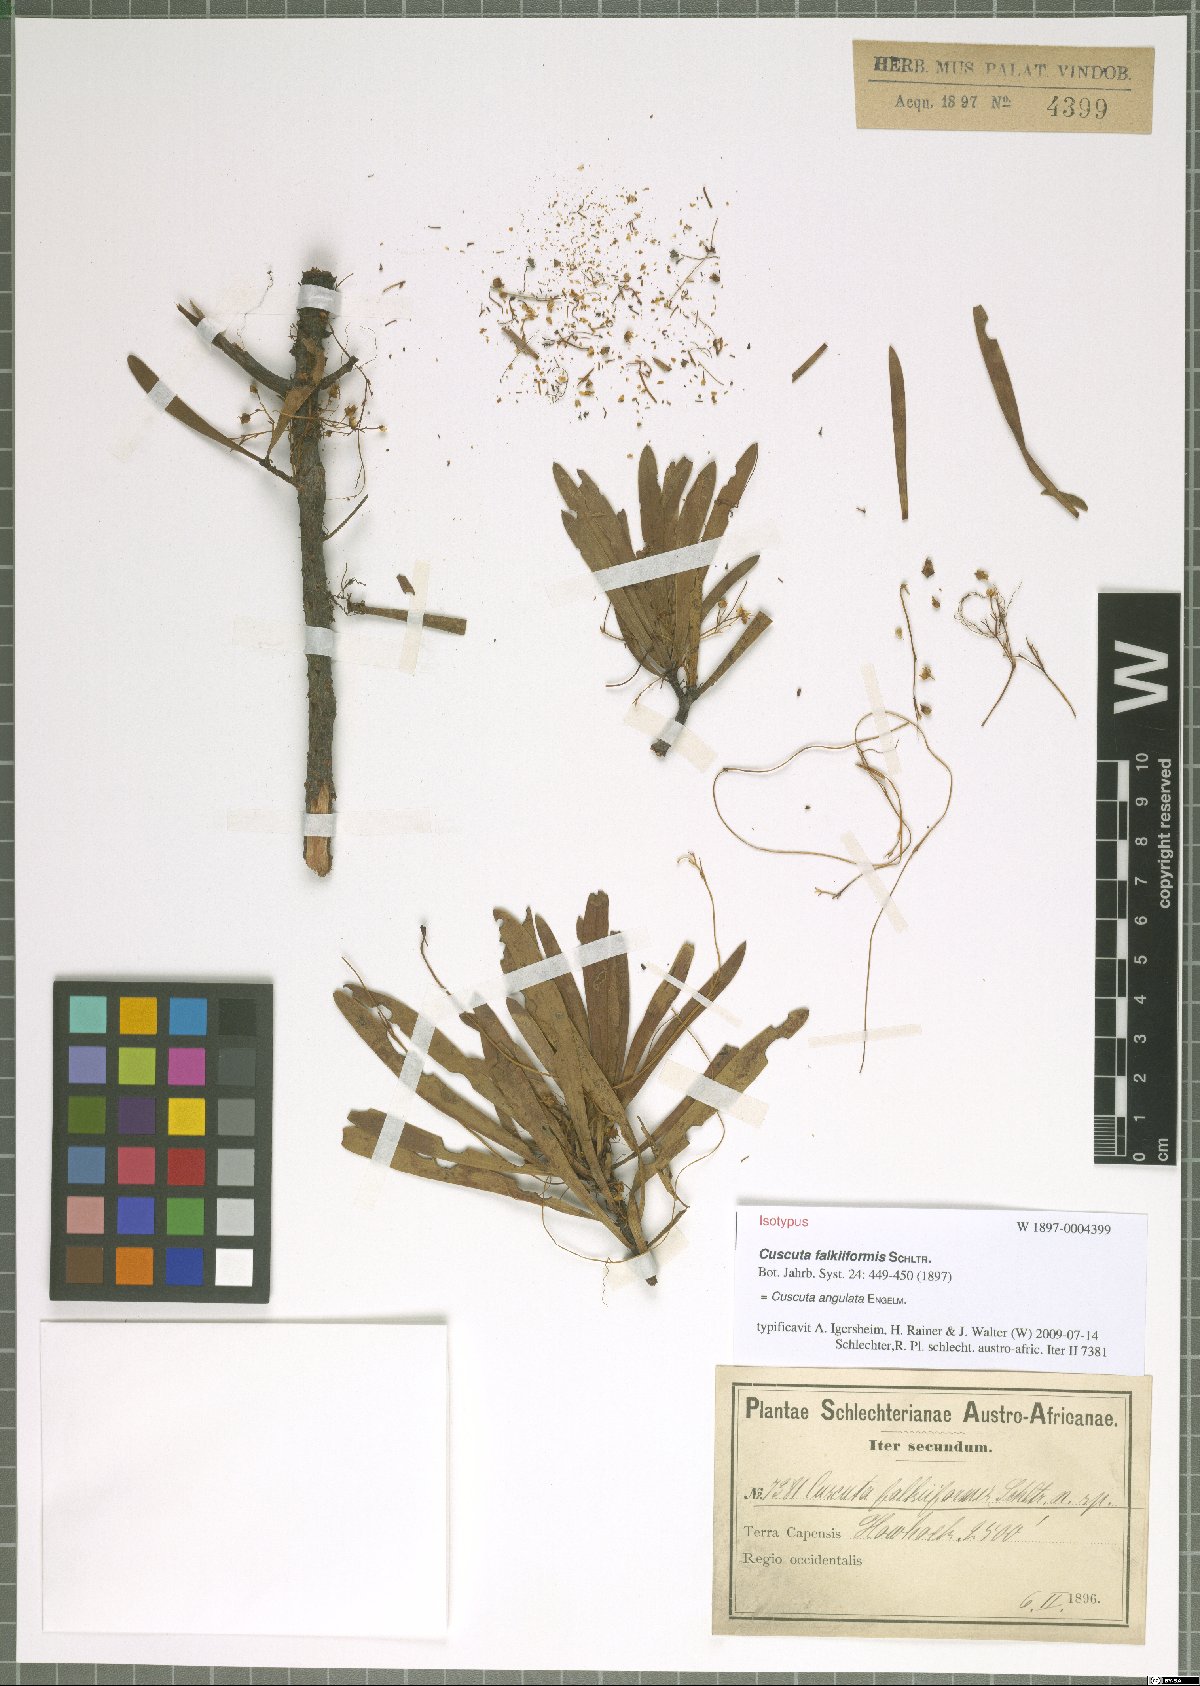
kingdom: Plantae
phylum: Tracheophyta
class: Magnoliopsida
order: Solanales
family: Convolvulaceae
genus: Cuscuta
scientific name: Cuscuta angulata
